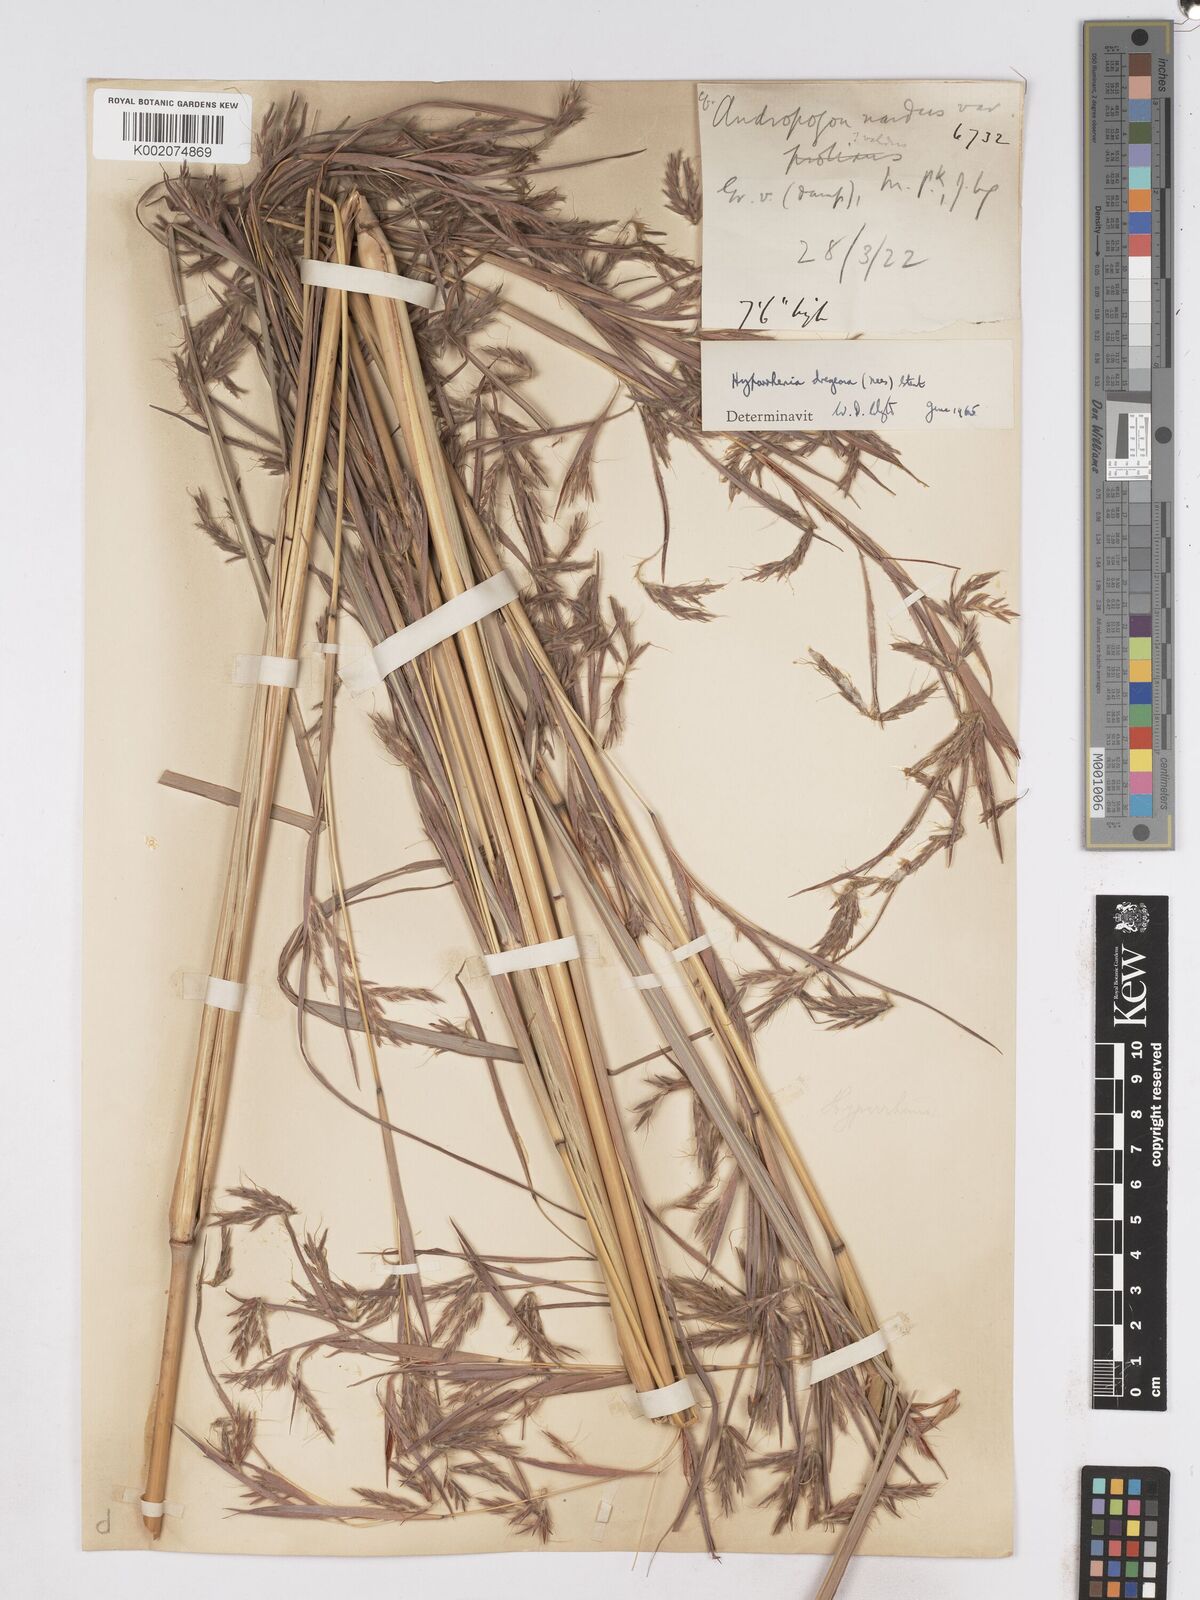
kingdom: Plantae
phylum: Tracheophyta
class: Liliopsida
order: Poales
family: Poaceae
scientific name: Poaceae
